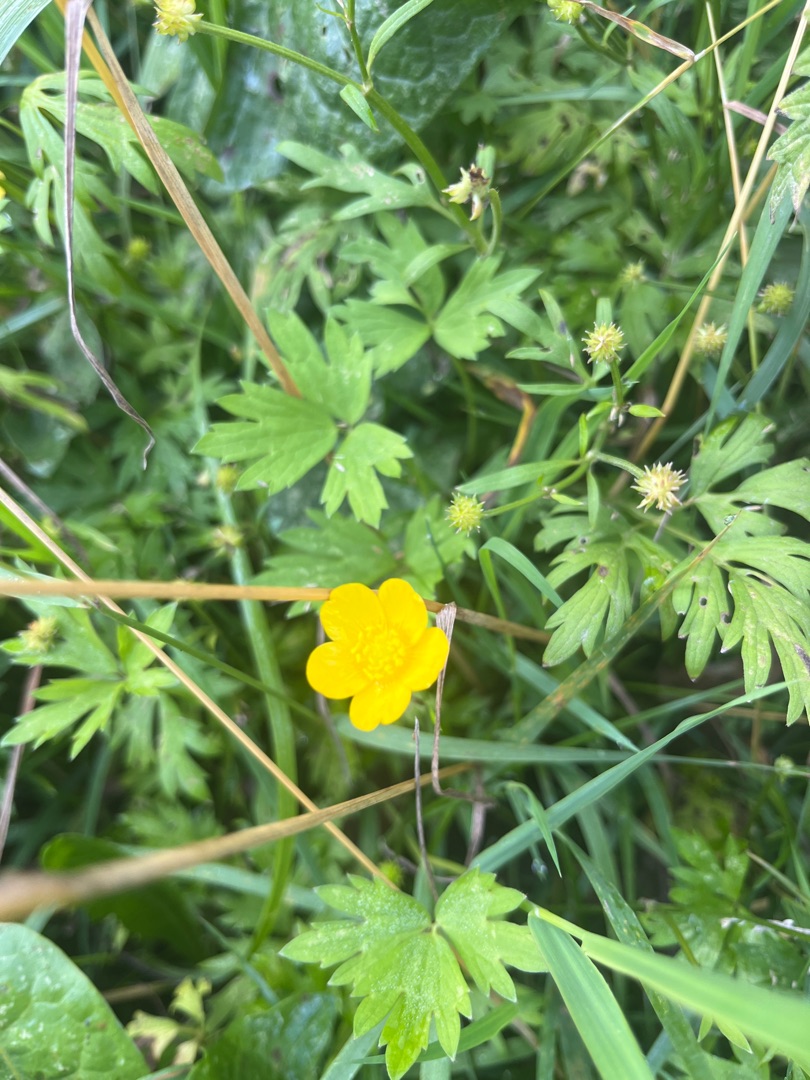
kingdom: Plantae
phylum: Tracheophyta
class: Magnoliopsida
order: Ranunculales
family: Ranunculaceae
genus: Ranunculus
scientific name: Ranunculus repens
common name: Lav ranunkel
